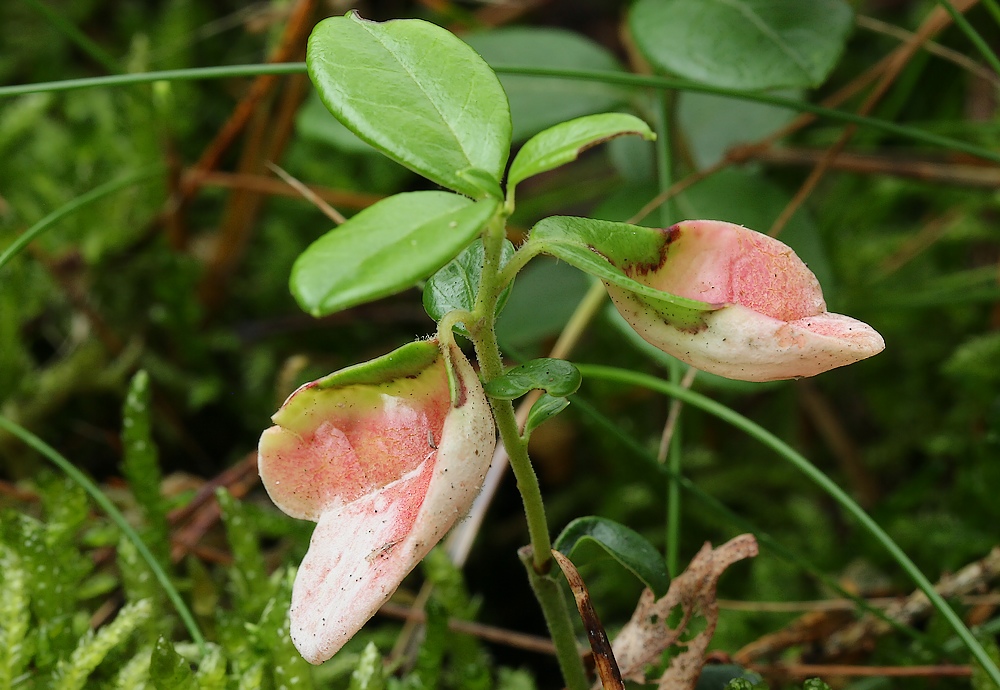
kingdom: Fungi
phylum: Basidiomycota
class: Exobasidiomycetes
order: Exobasidiales
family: Exobasidiaceae
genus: Exobasidium
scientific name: Exobasidium vaccinii
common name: tyttebærblad-bøllesvamp
